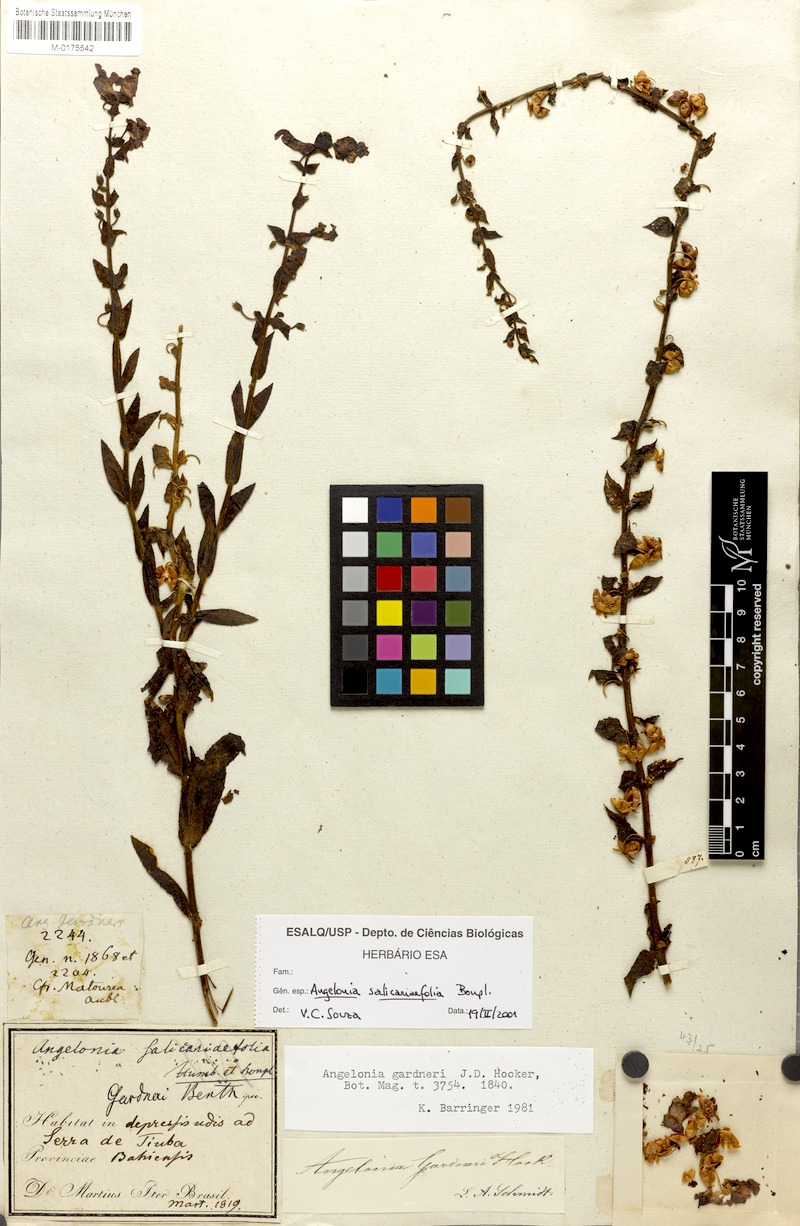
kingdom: Plantae
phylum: Tracheophyta
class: Magnoliopsida
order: Lamiales
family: Plantaginaceae
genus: Angelonia
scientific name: Angelonia salicariifolia
